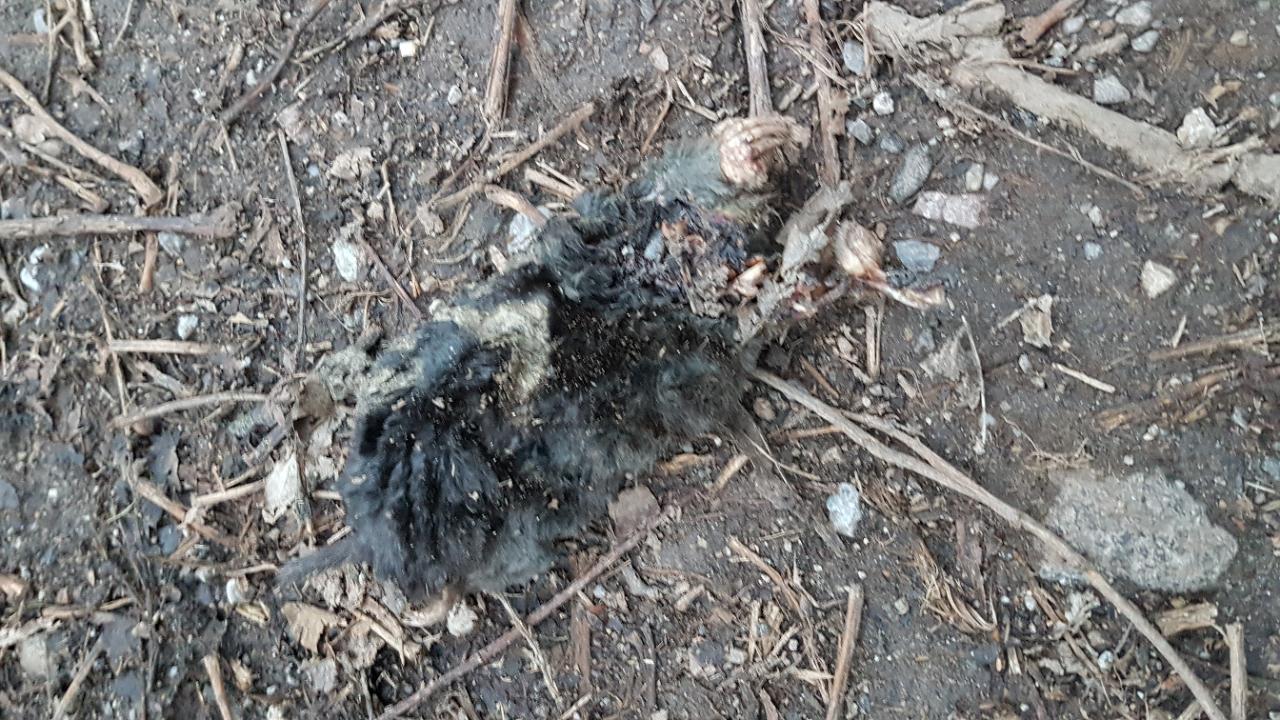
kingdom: Animalia
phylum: Chordata
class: Mammalia
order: Soricomorpha
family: Talpidae
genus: Talpa
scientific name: Talpa europaea
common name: European mole
